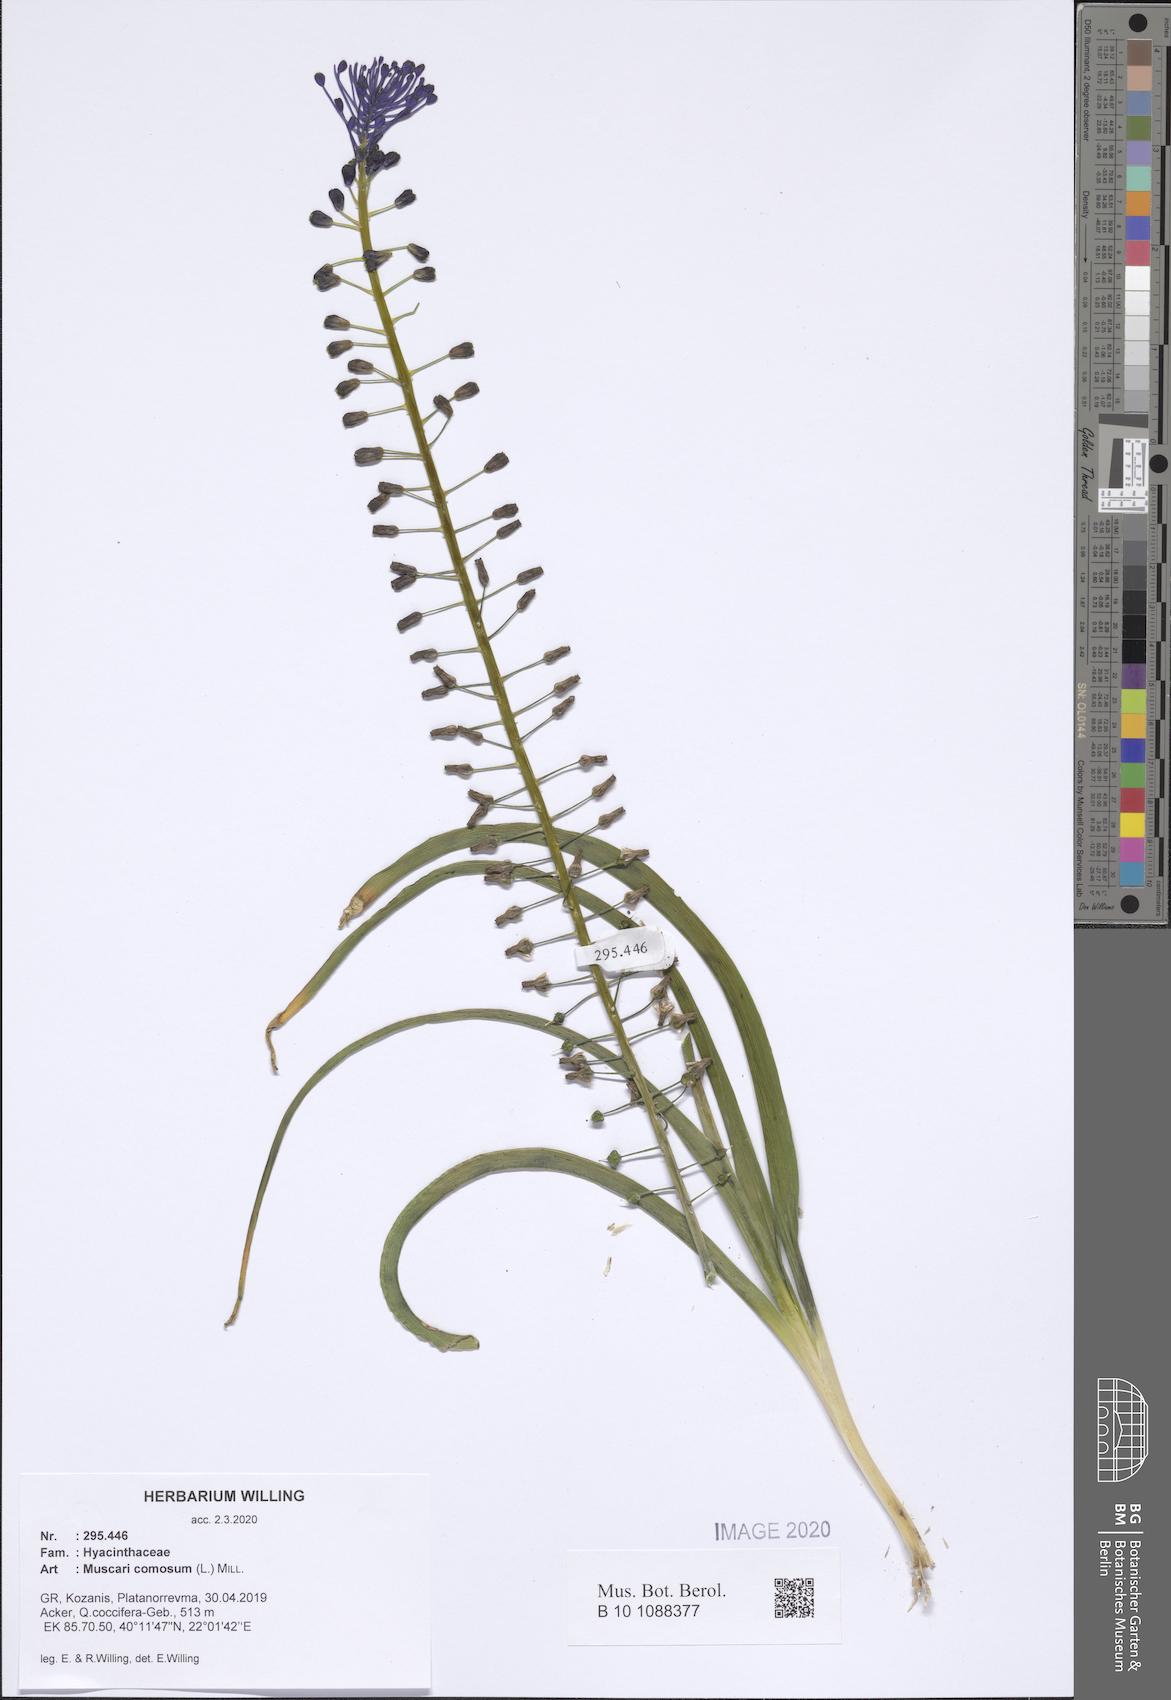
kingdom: Plantae
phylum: Tracheophyta
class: Liliopsida
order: Asparagales
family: Asparagaceae
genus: Muscari
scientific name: Muscari comosum
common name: Tassel hyacinth
